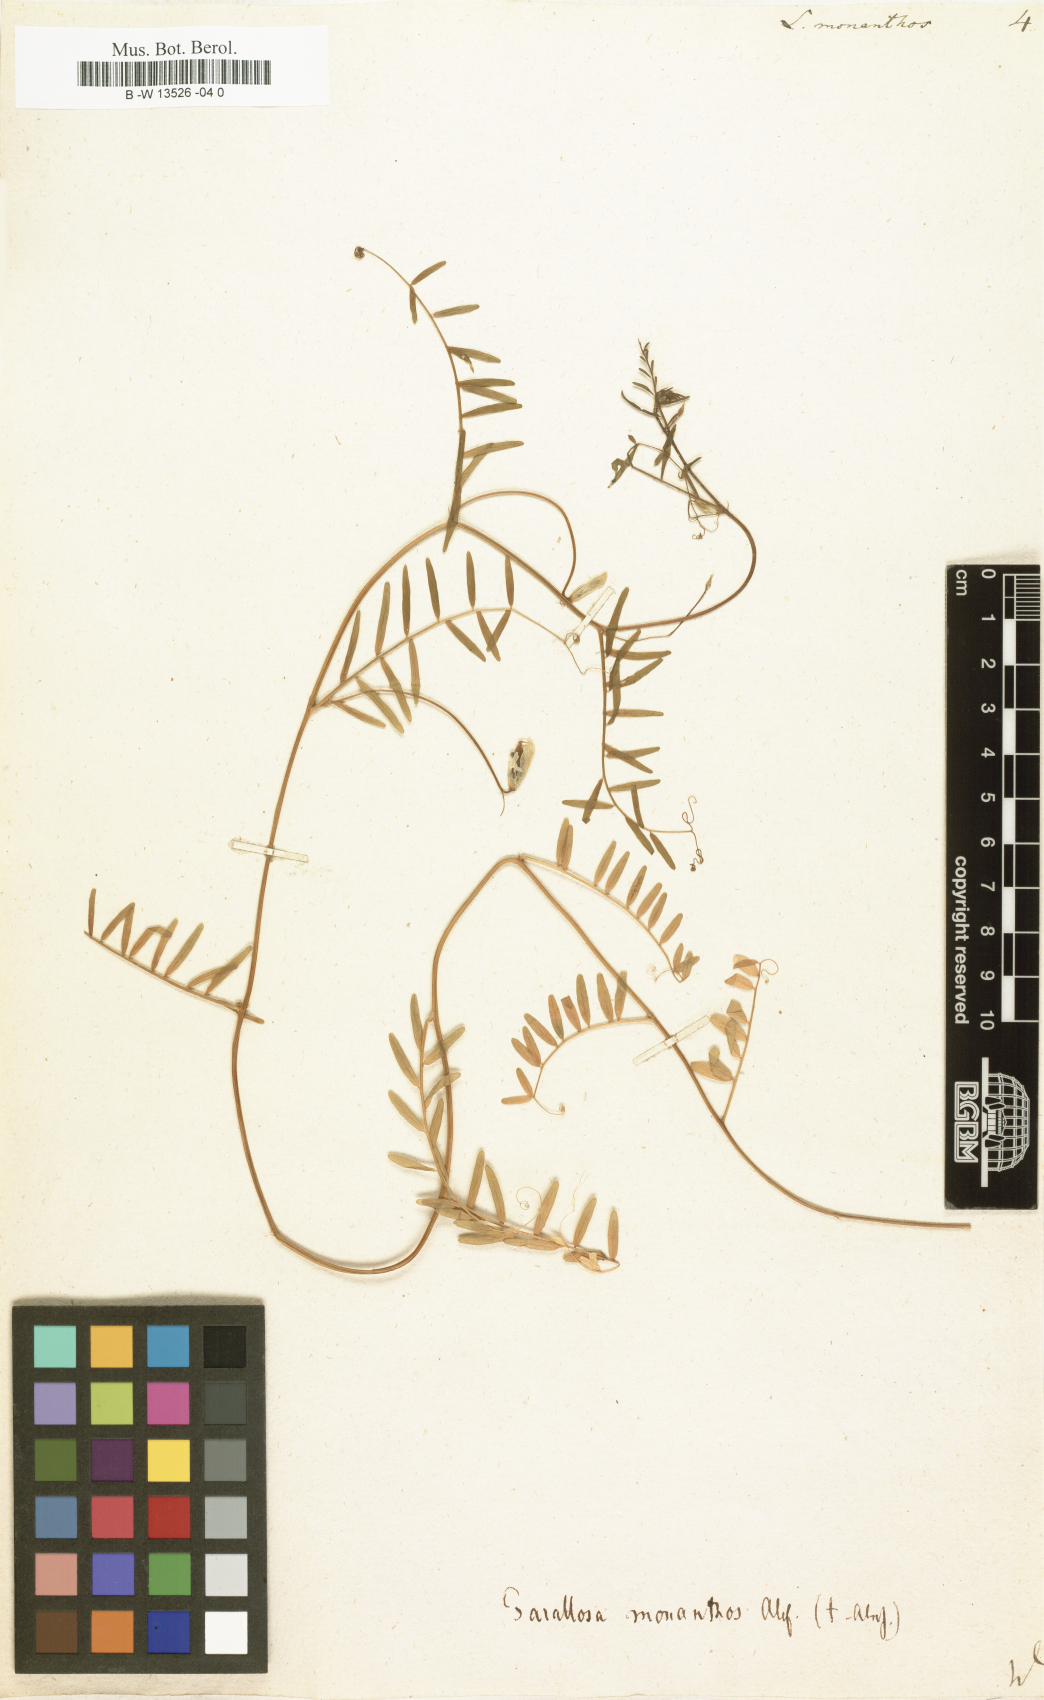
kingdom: Plantae
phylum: Tracheophyta
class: Magnoliopsida
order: Fabales
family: Fabaceae
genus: Vicia
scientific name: Vicia
